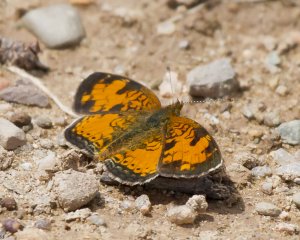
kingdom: Animalia
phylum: Arthropoda
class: Insecta
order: Lepidoptera
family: Nymphalidae
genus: Phyciodes
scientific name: Phyciodes tharos
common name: Northern Crescent
